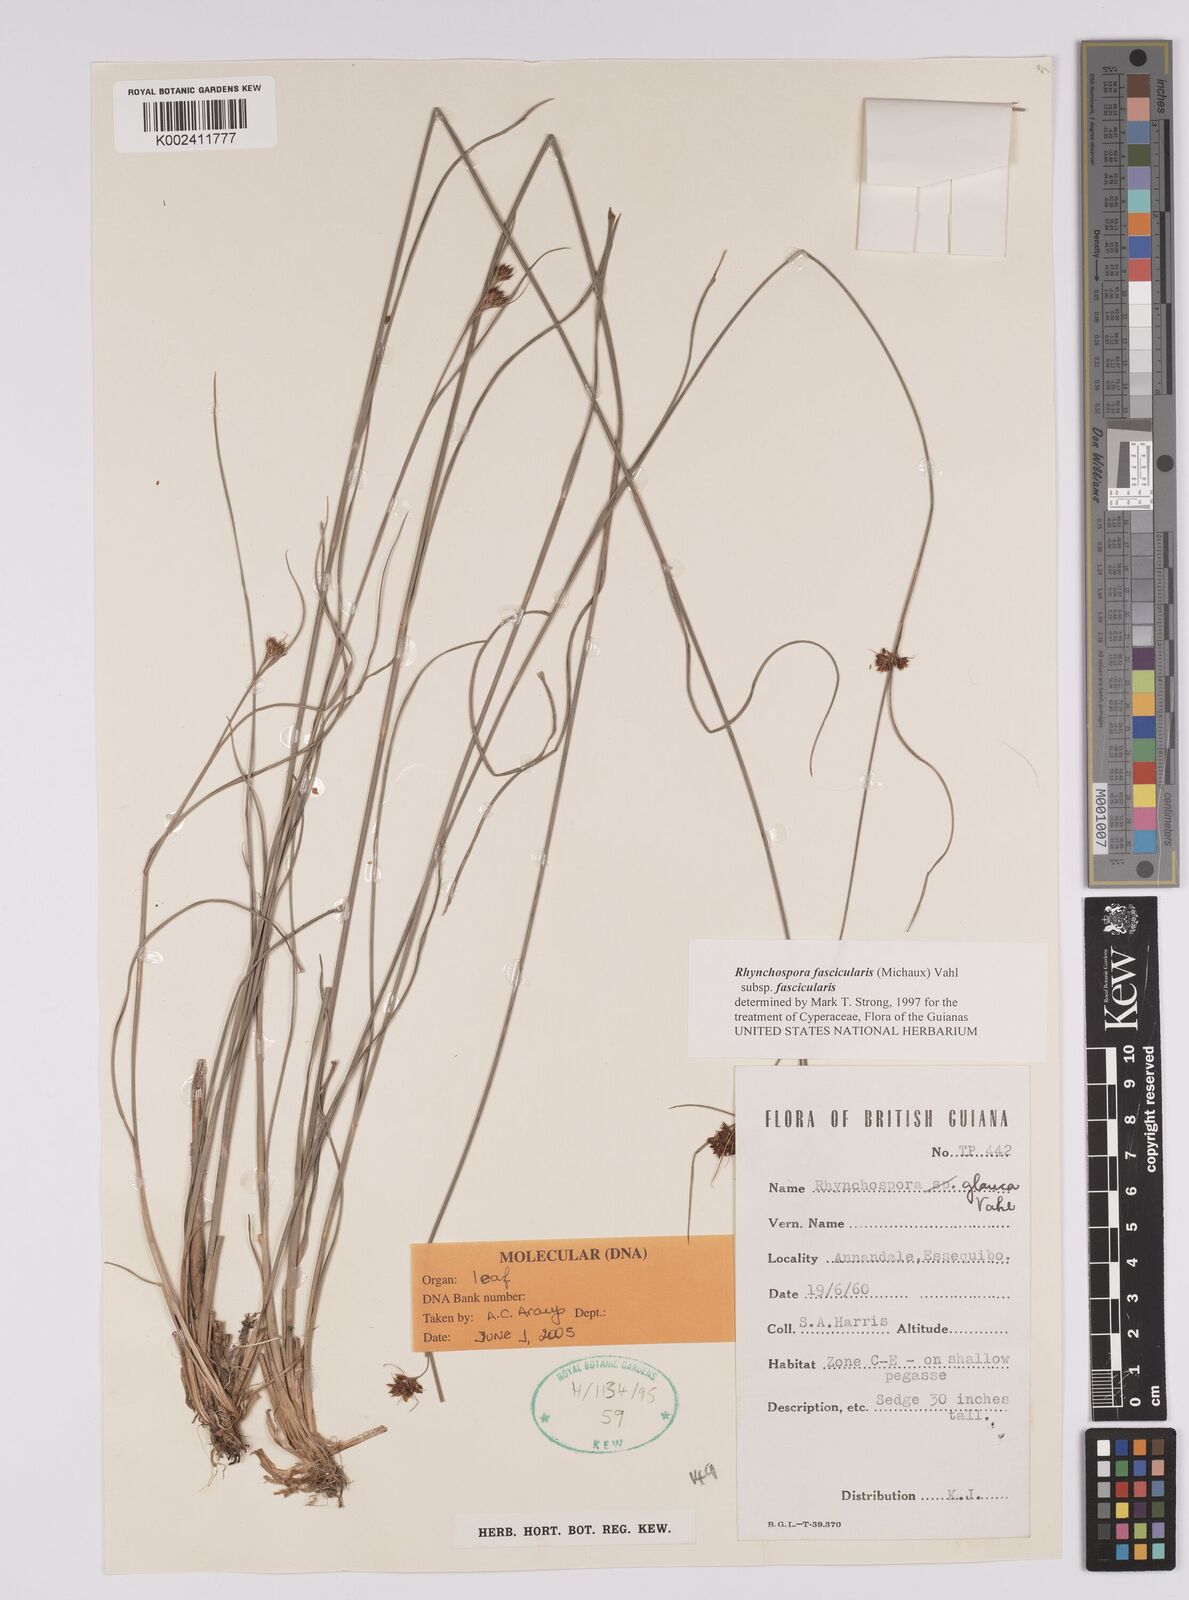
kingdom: Plantae
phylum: Tracheophyta
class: Liliopsida
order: Poales
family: Cyperaceae
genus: Rhynchospora
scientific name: Rhynchospora fascicularis
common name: Fascicled beak sedge
